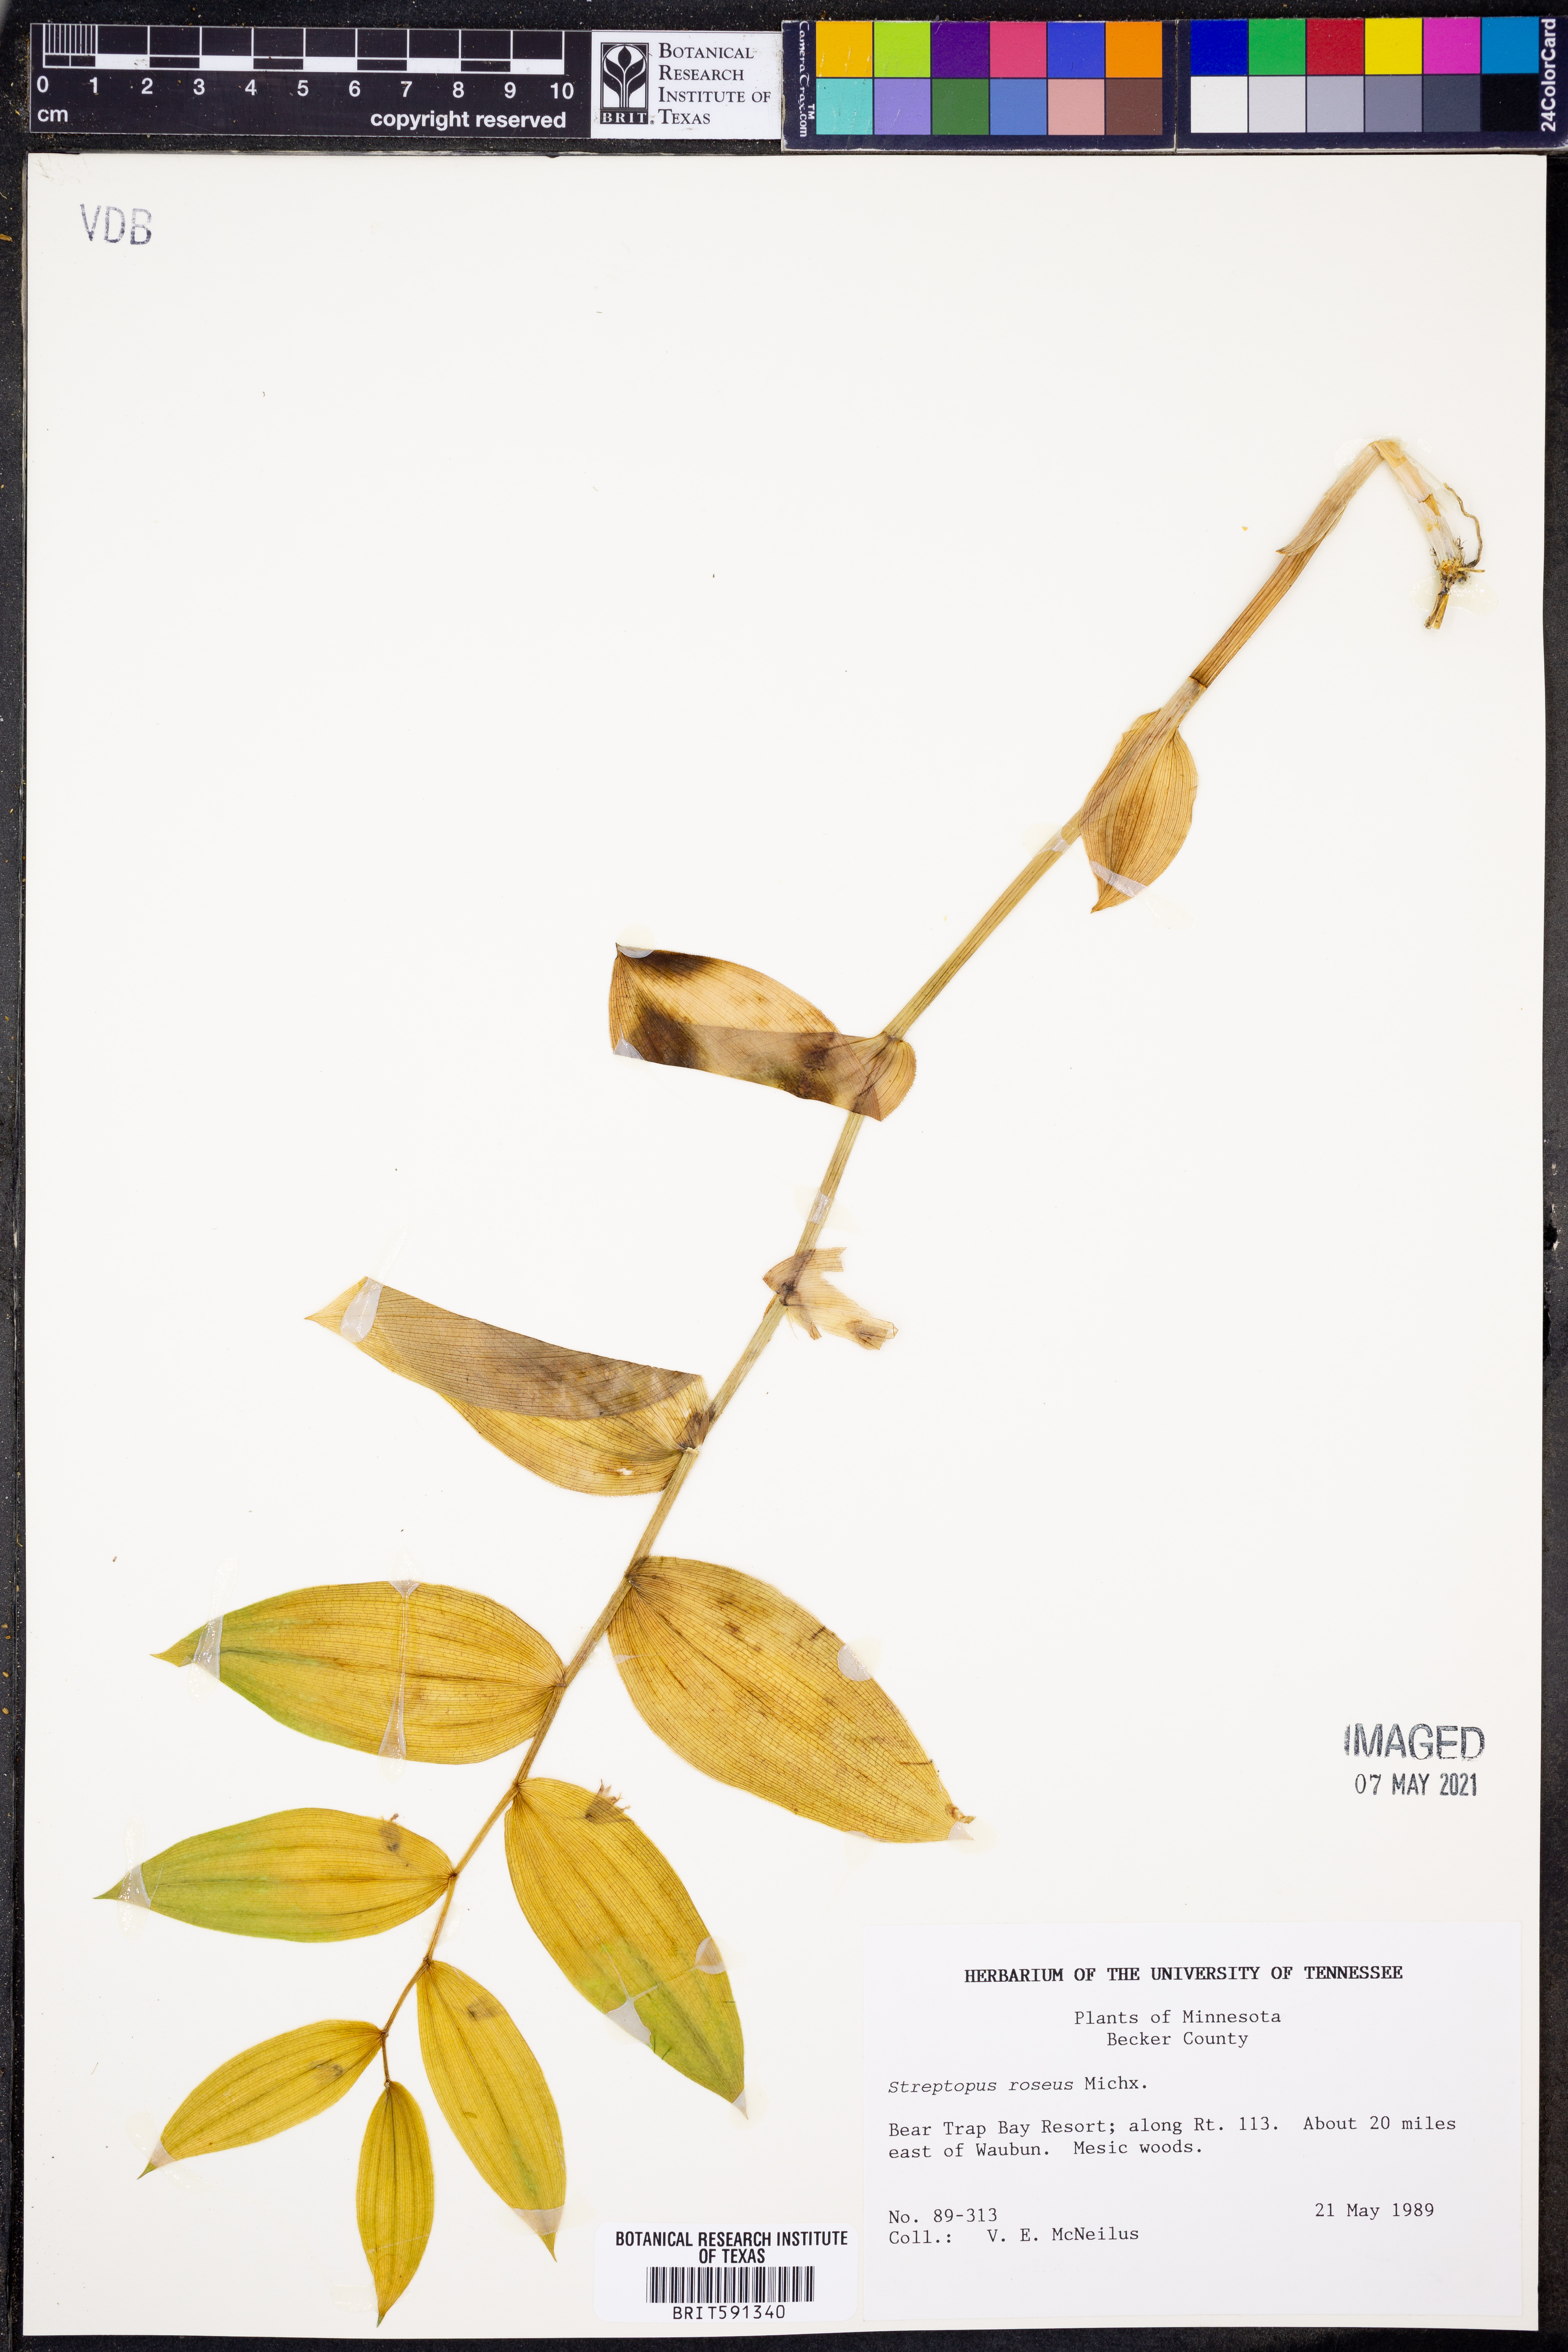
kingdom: Plantae
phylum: Tracheophyta
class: Liliopsida
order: Liliales
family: Liliaceae
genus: Streptopus
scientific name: Streptopus lanceolatus
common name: Rose mandarin
